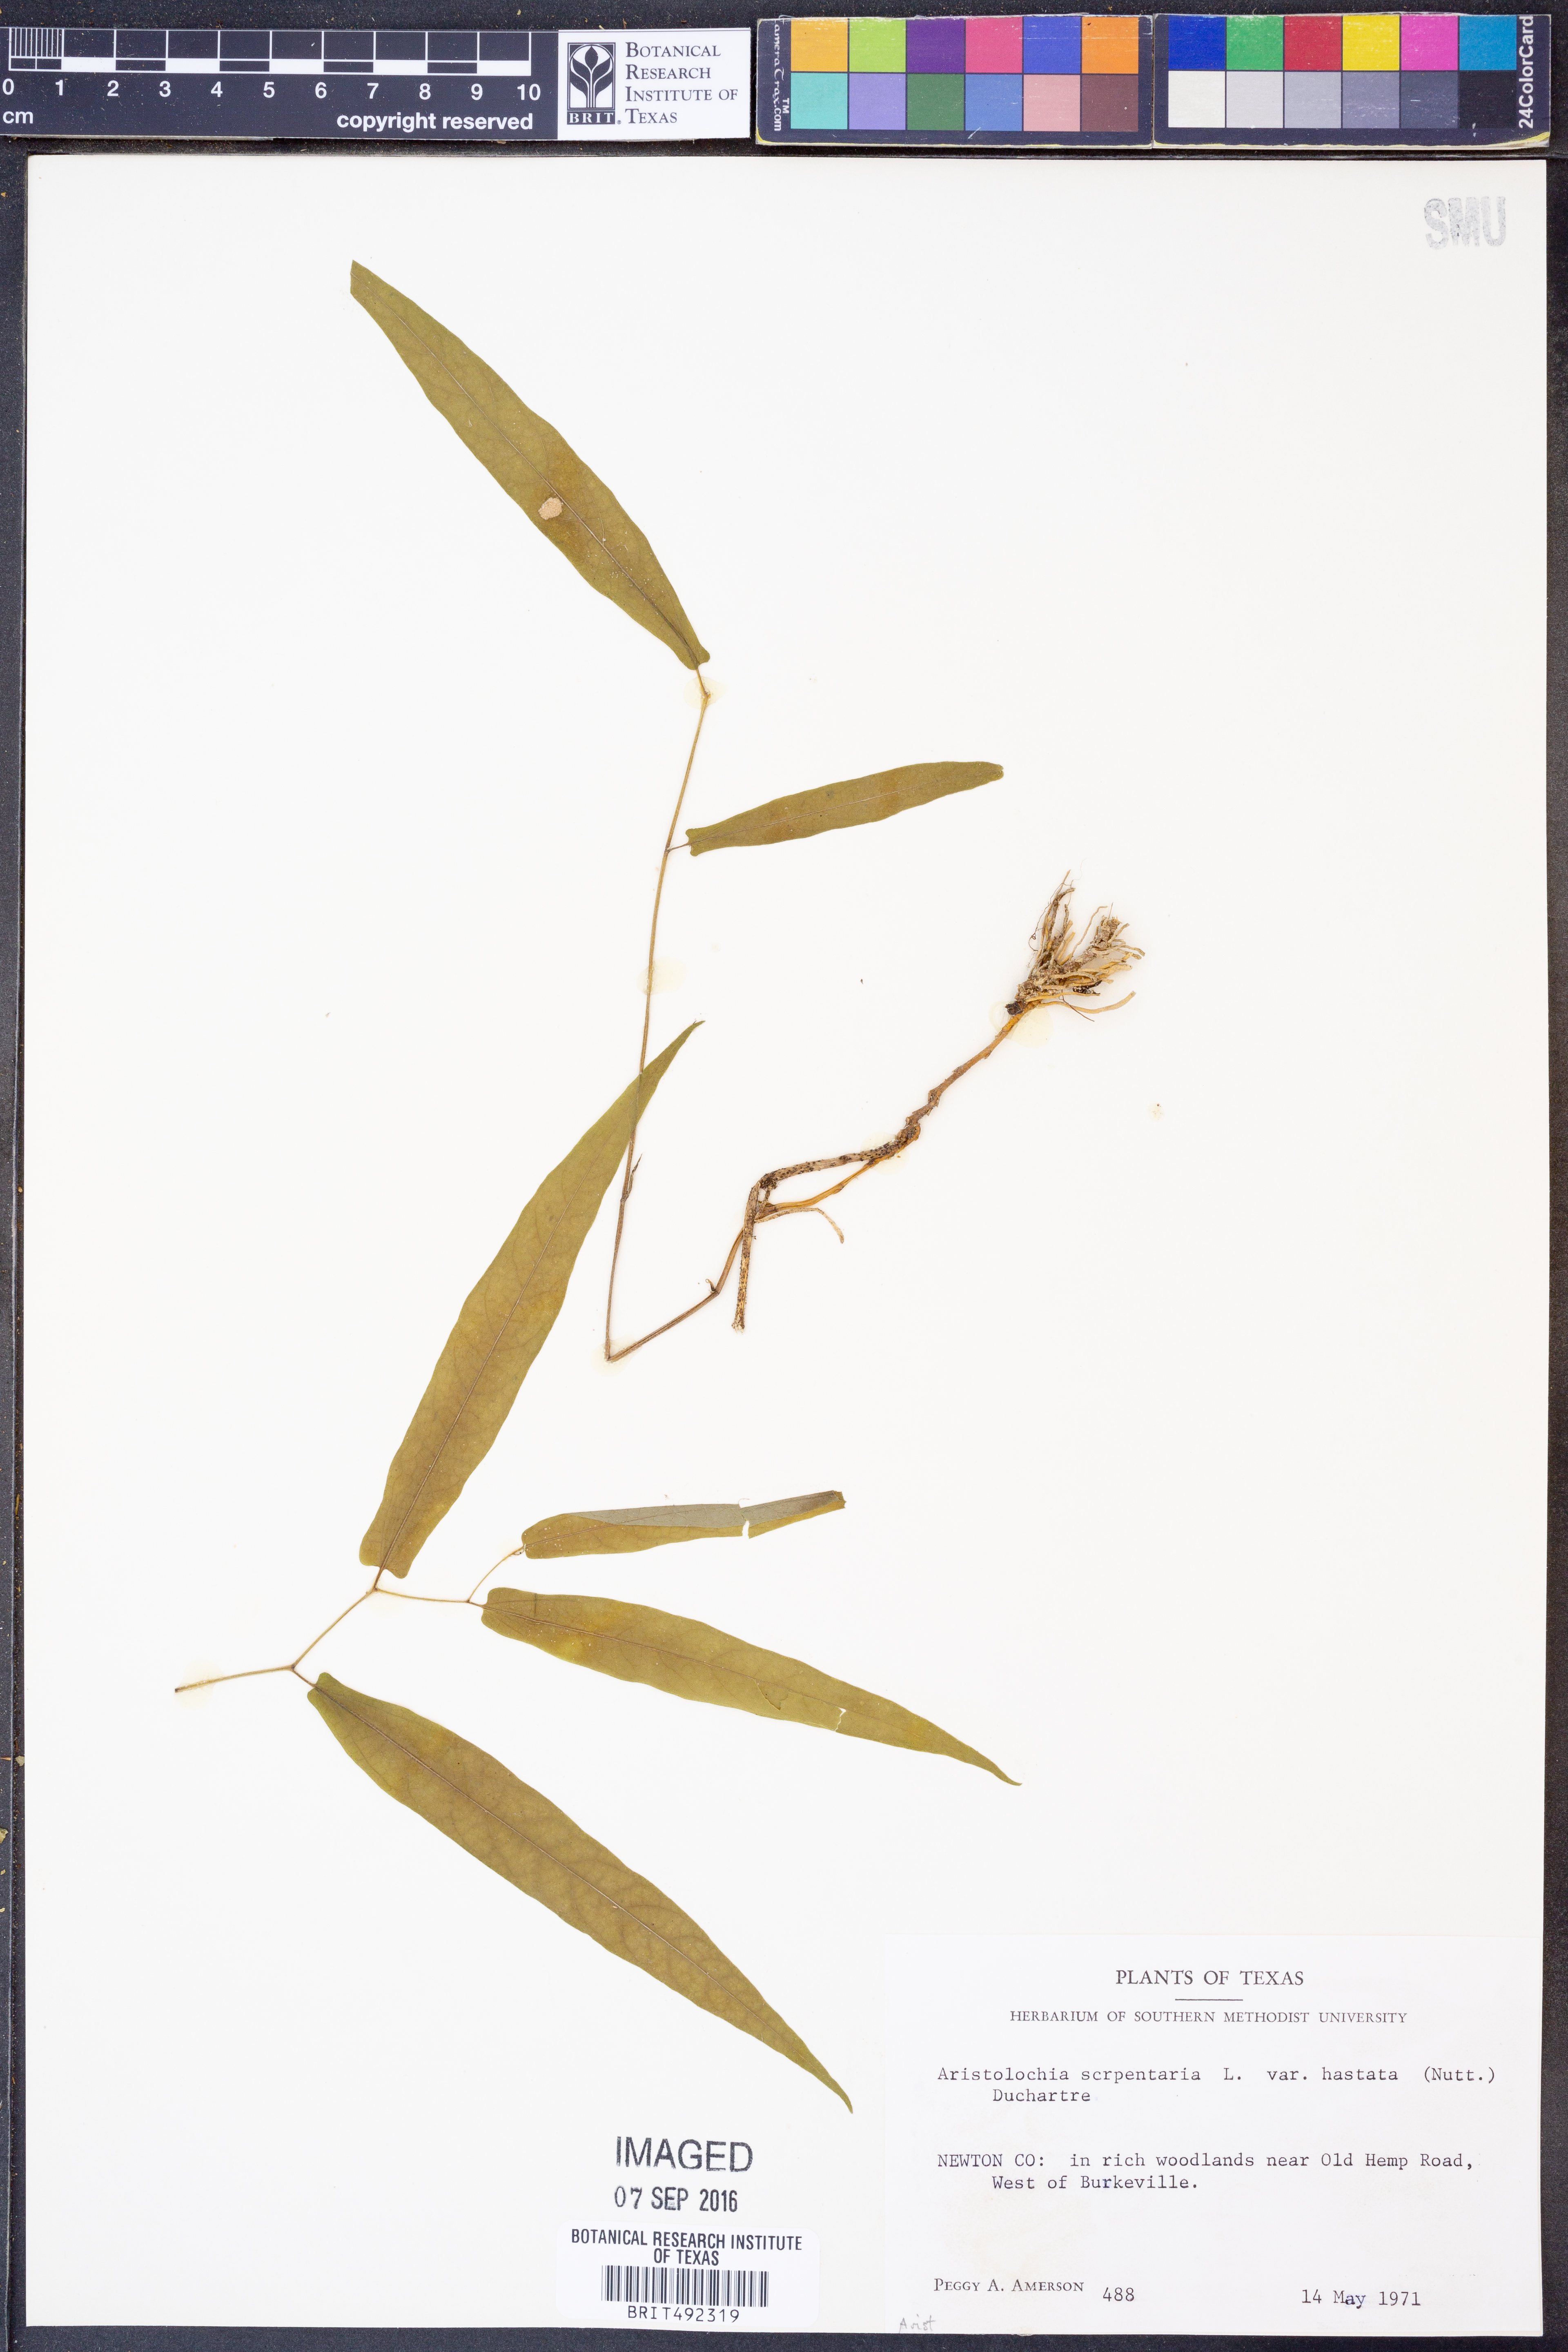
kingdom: Plantae
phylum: Tracheophyta
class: Magnoliopsida
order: Piperales
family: Aristolochiaceae
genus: Endodeca
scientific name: Endodeca serpentaria
